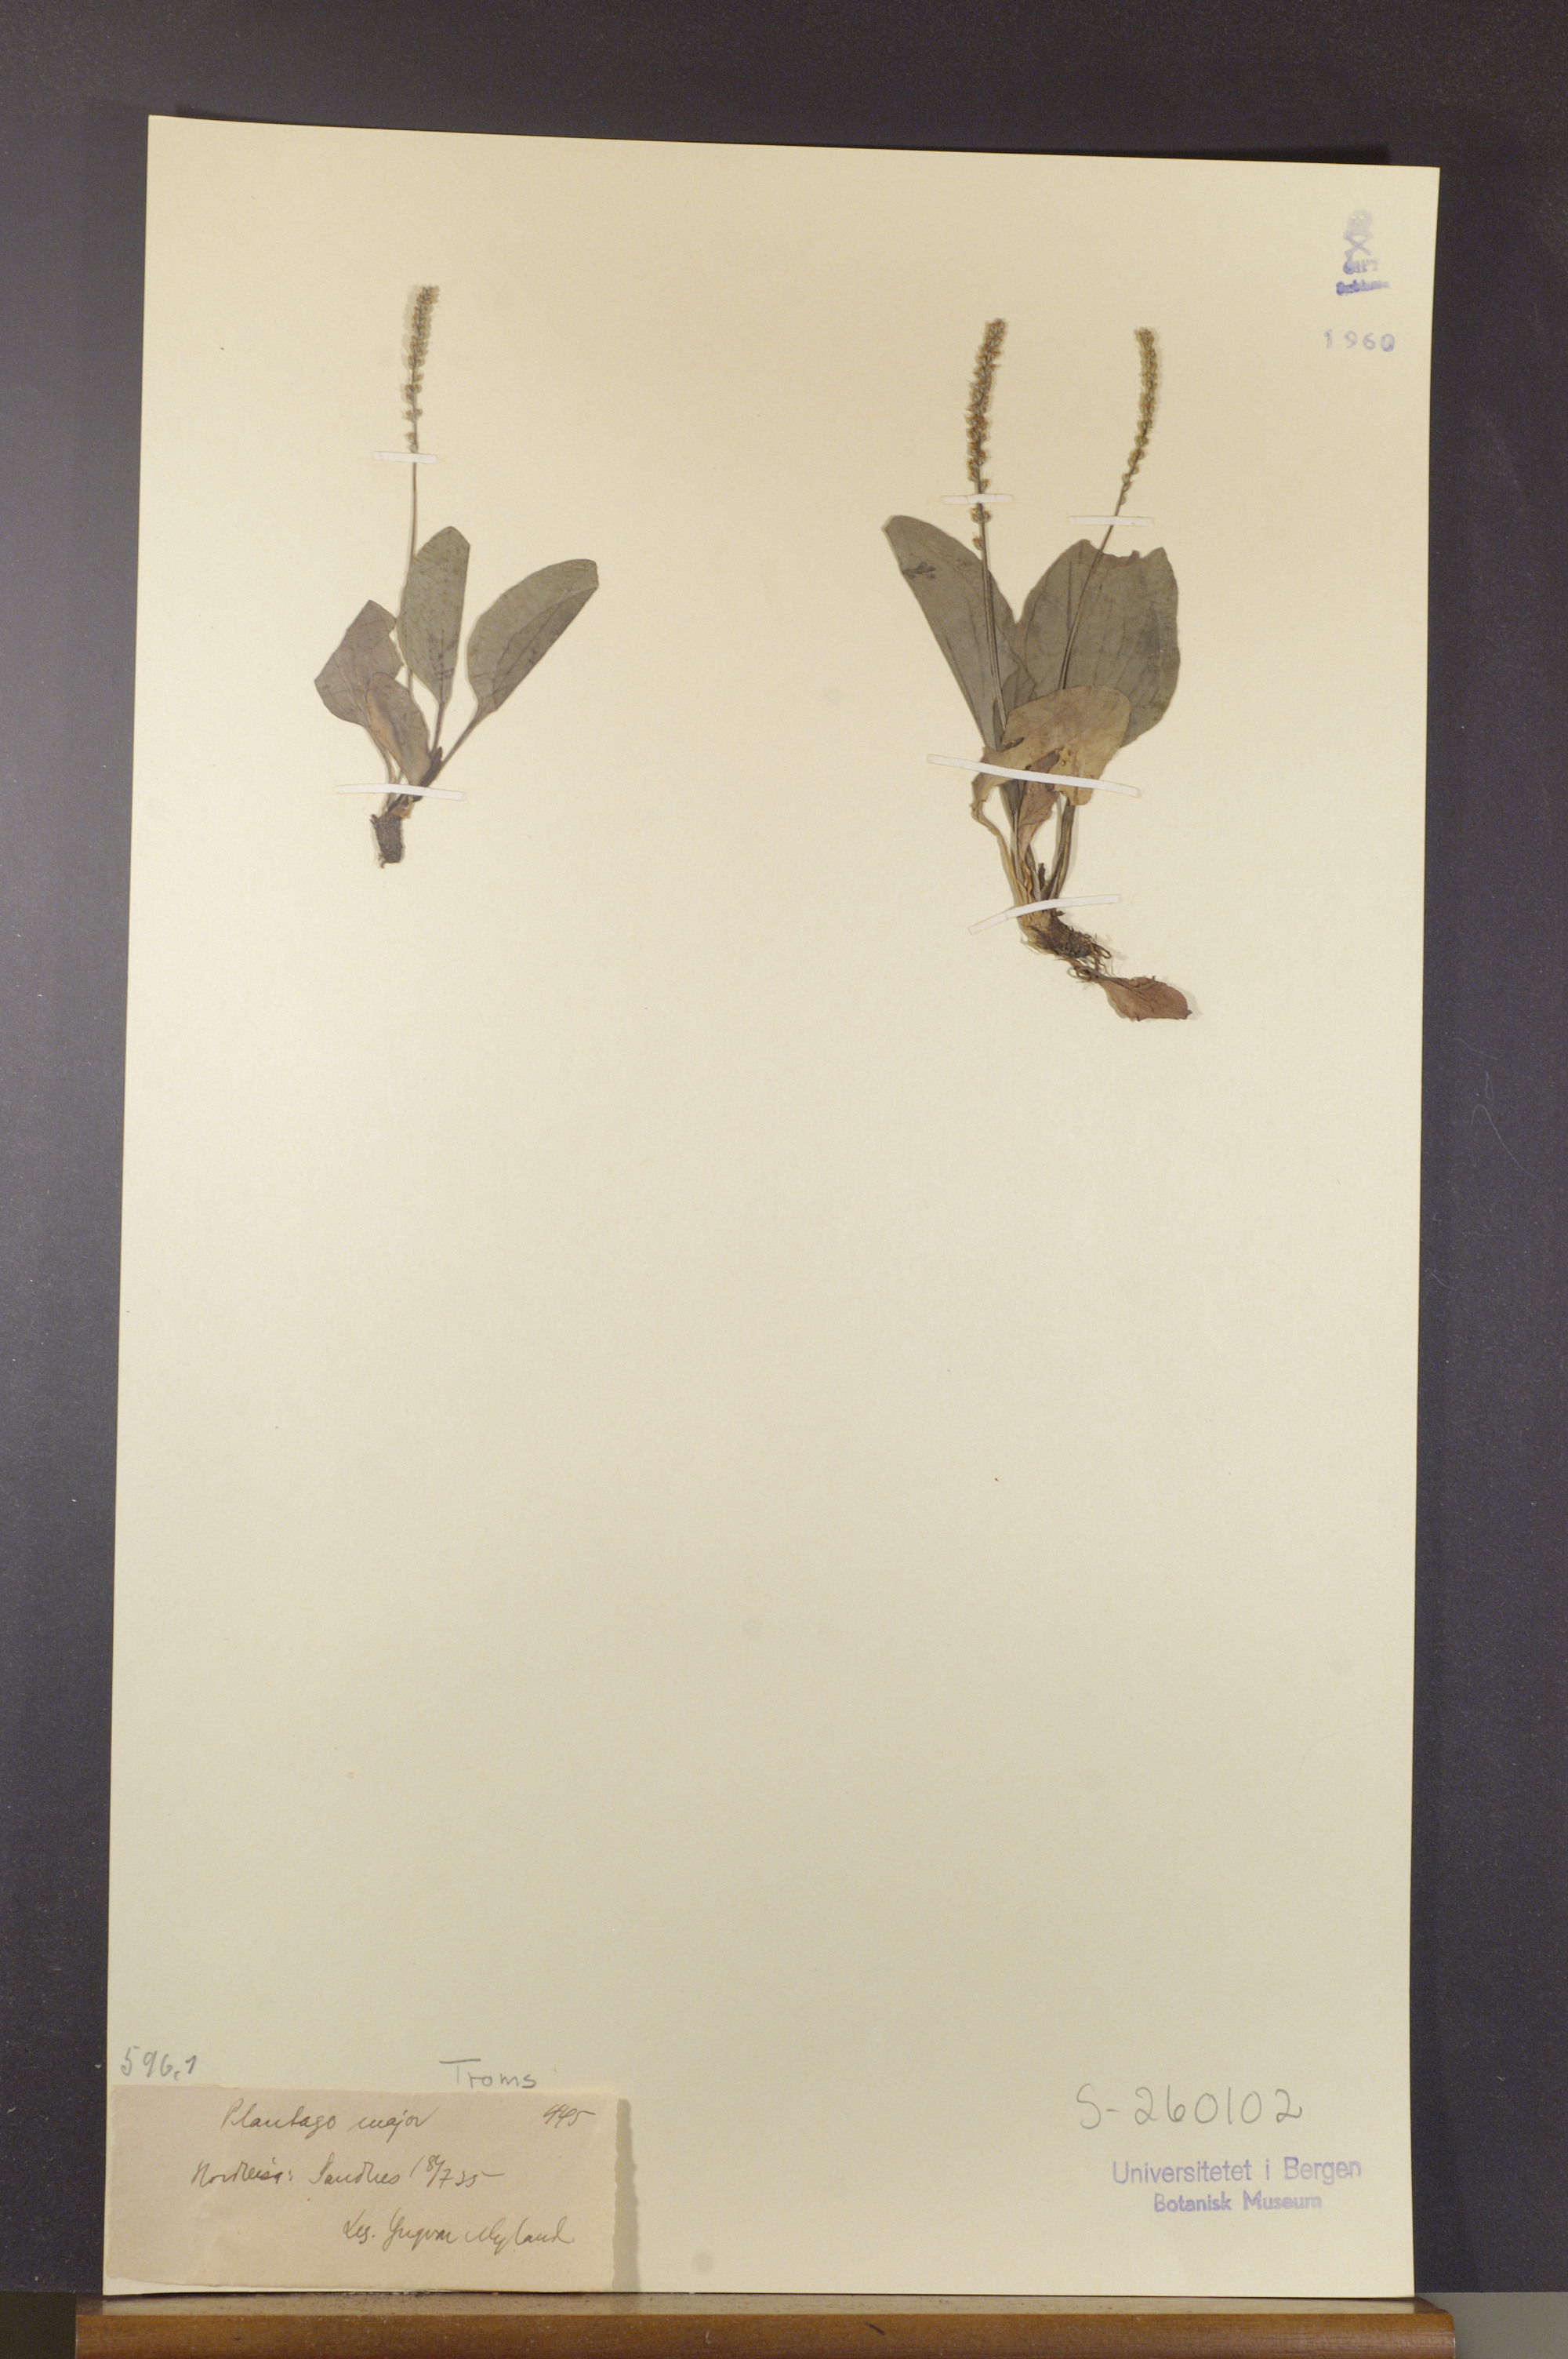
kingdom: Plantae
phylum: Tracheophyta
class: Magnoliopsida
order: Lamiales
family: Plantaginaceae
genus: Plantago
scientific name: Plantago major
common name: Common plantain
